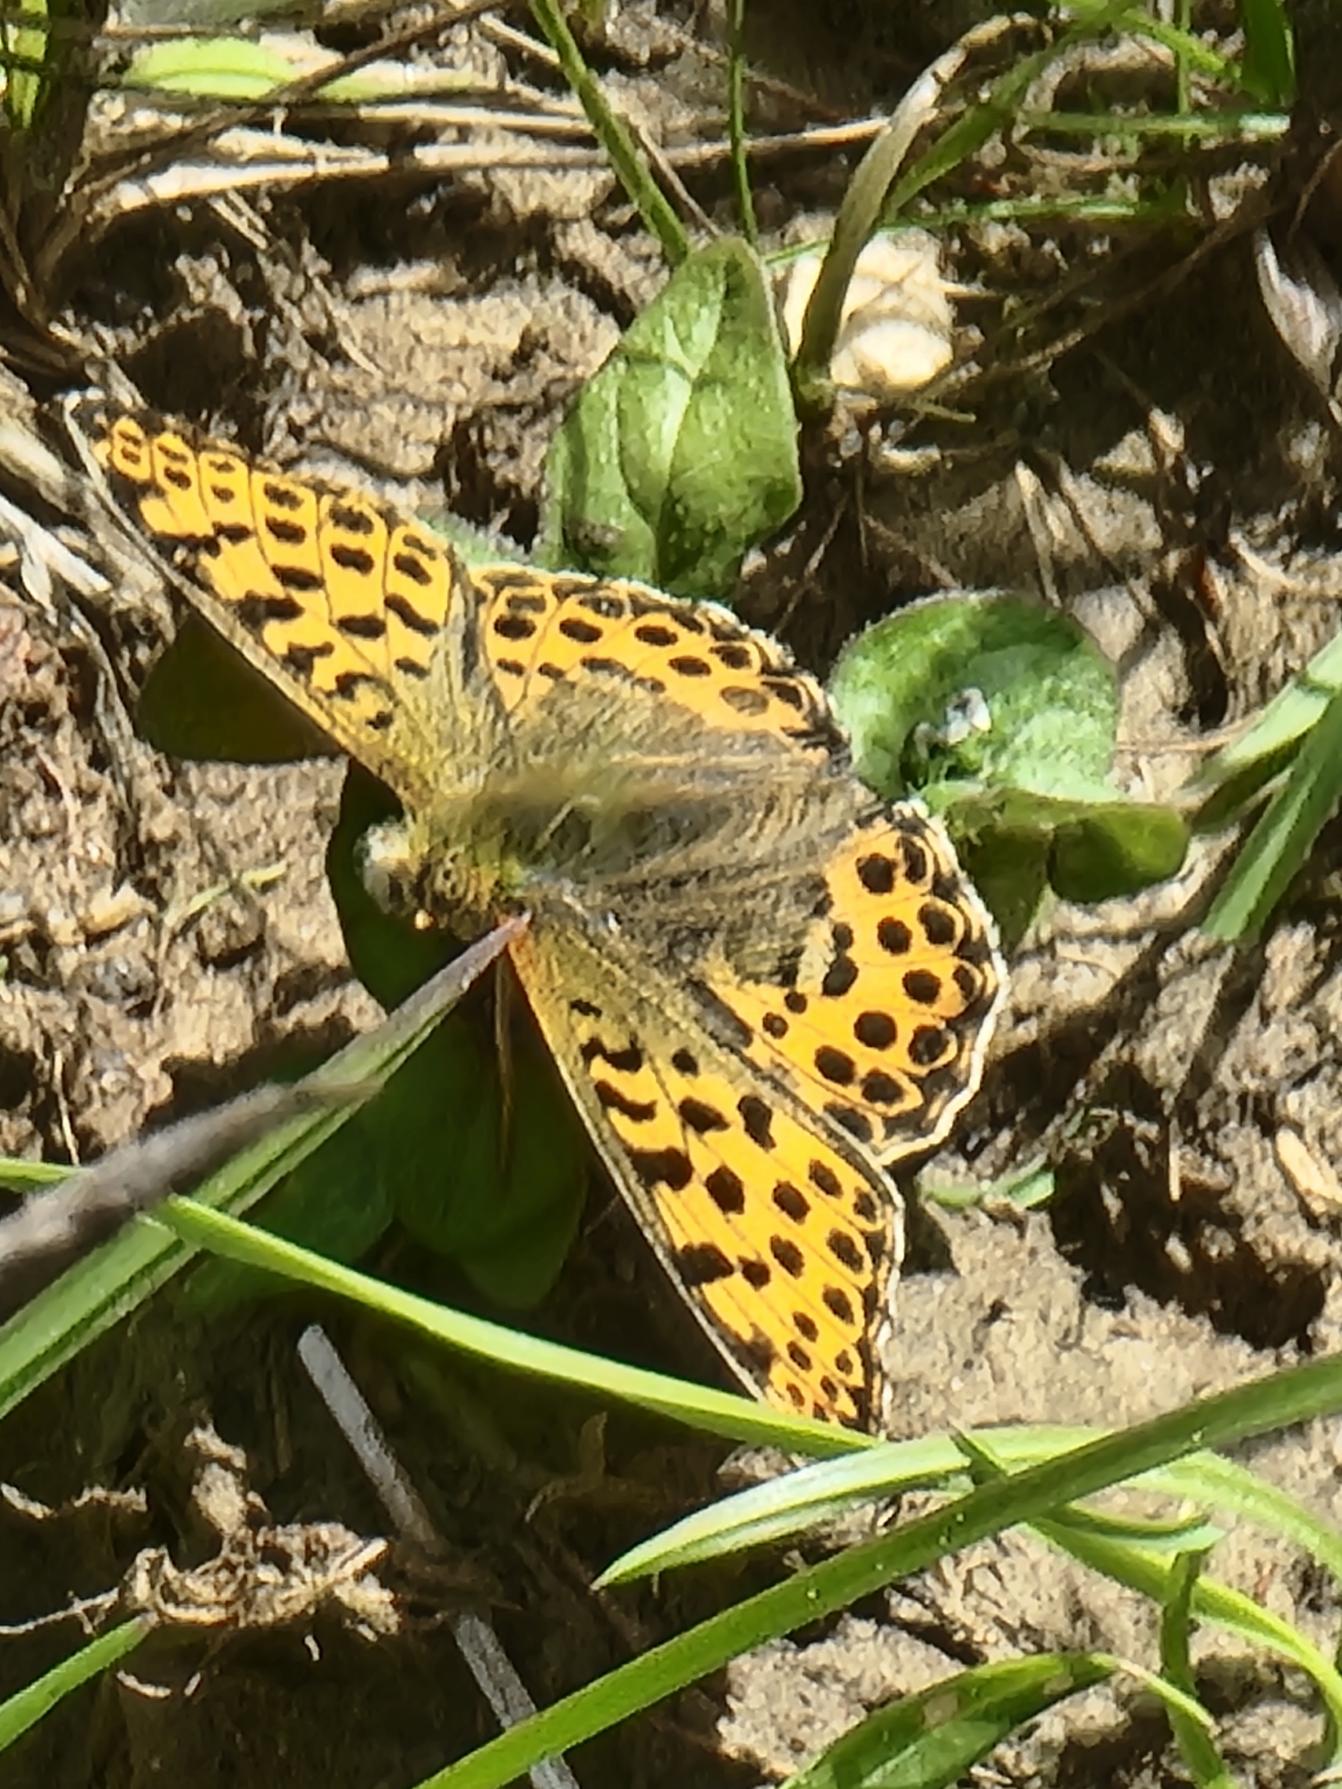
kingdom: Animalia
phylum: Arthropoda
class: Insecta
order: Lepidoptera
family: Nymphalidae
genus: Issoria
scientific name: Issoria lathonia
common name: Storplettet perlemorsommerfugl
